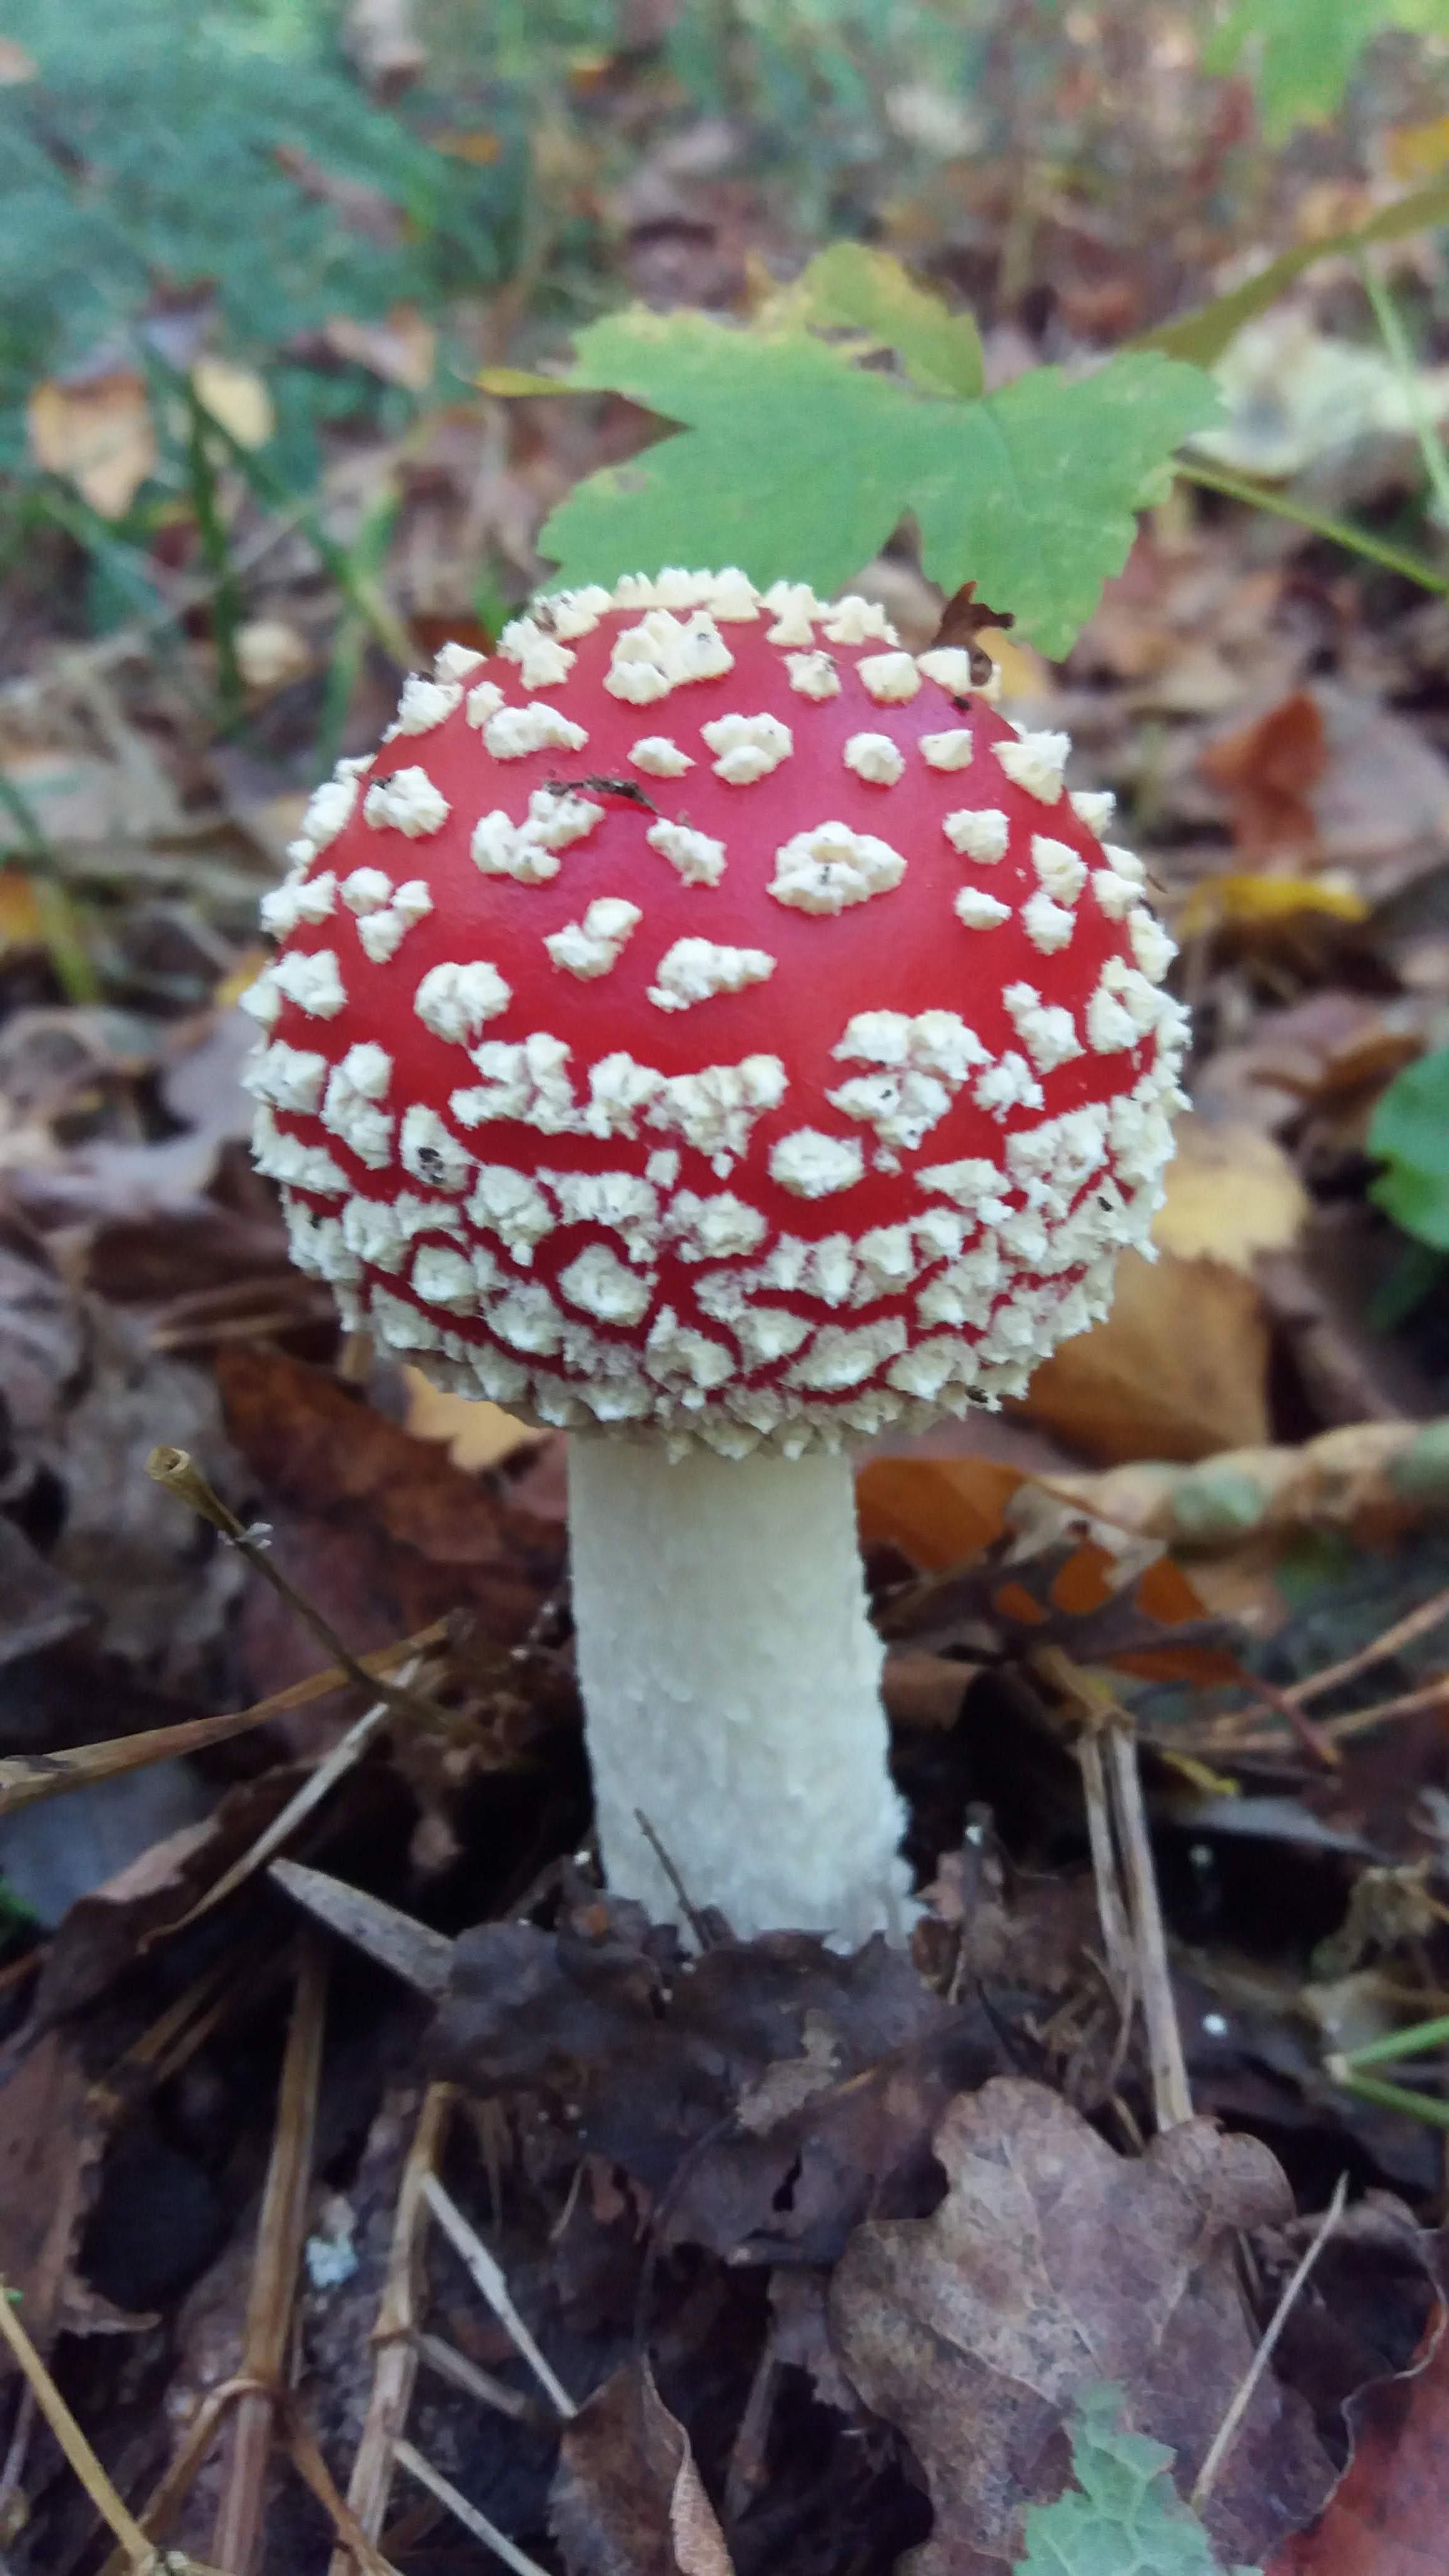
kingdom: Fungi
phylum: Basidiomycota
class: Agaricomycetes
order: Agaricales
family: Amanitaceae
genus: Amanita
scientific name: Amanita muscaria
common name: rød fluesvamp
